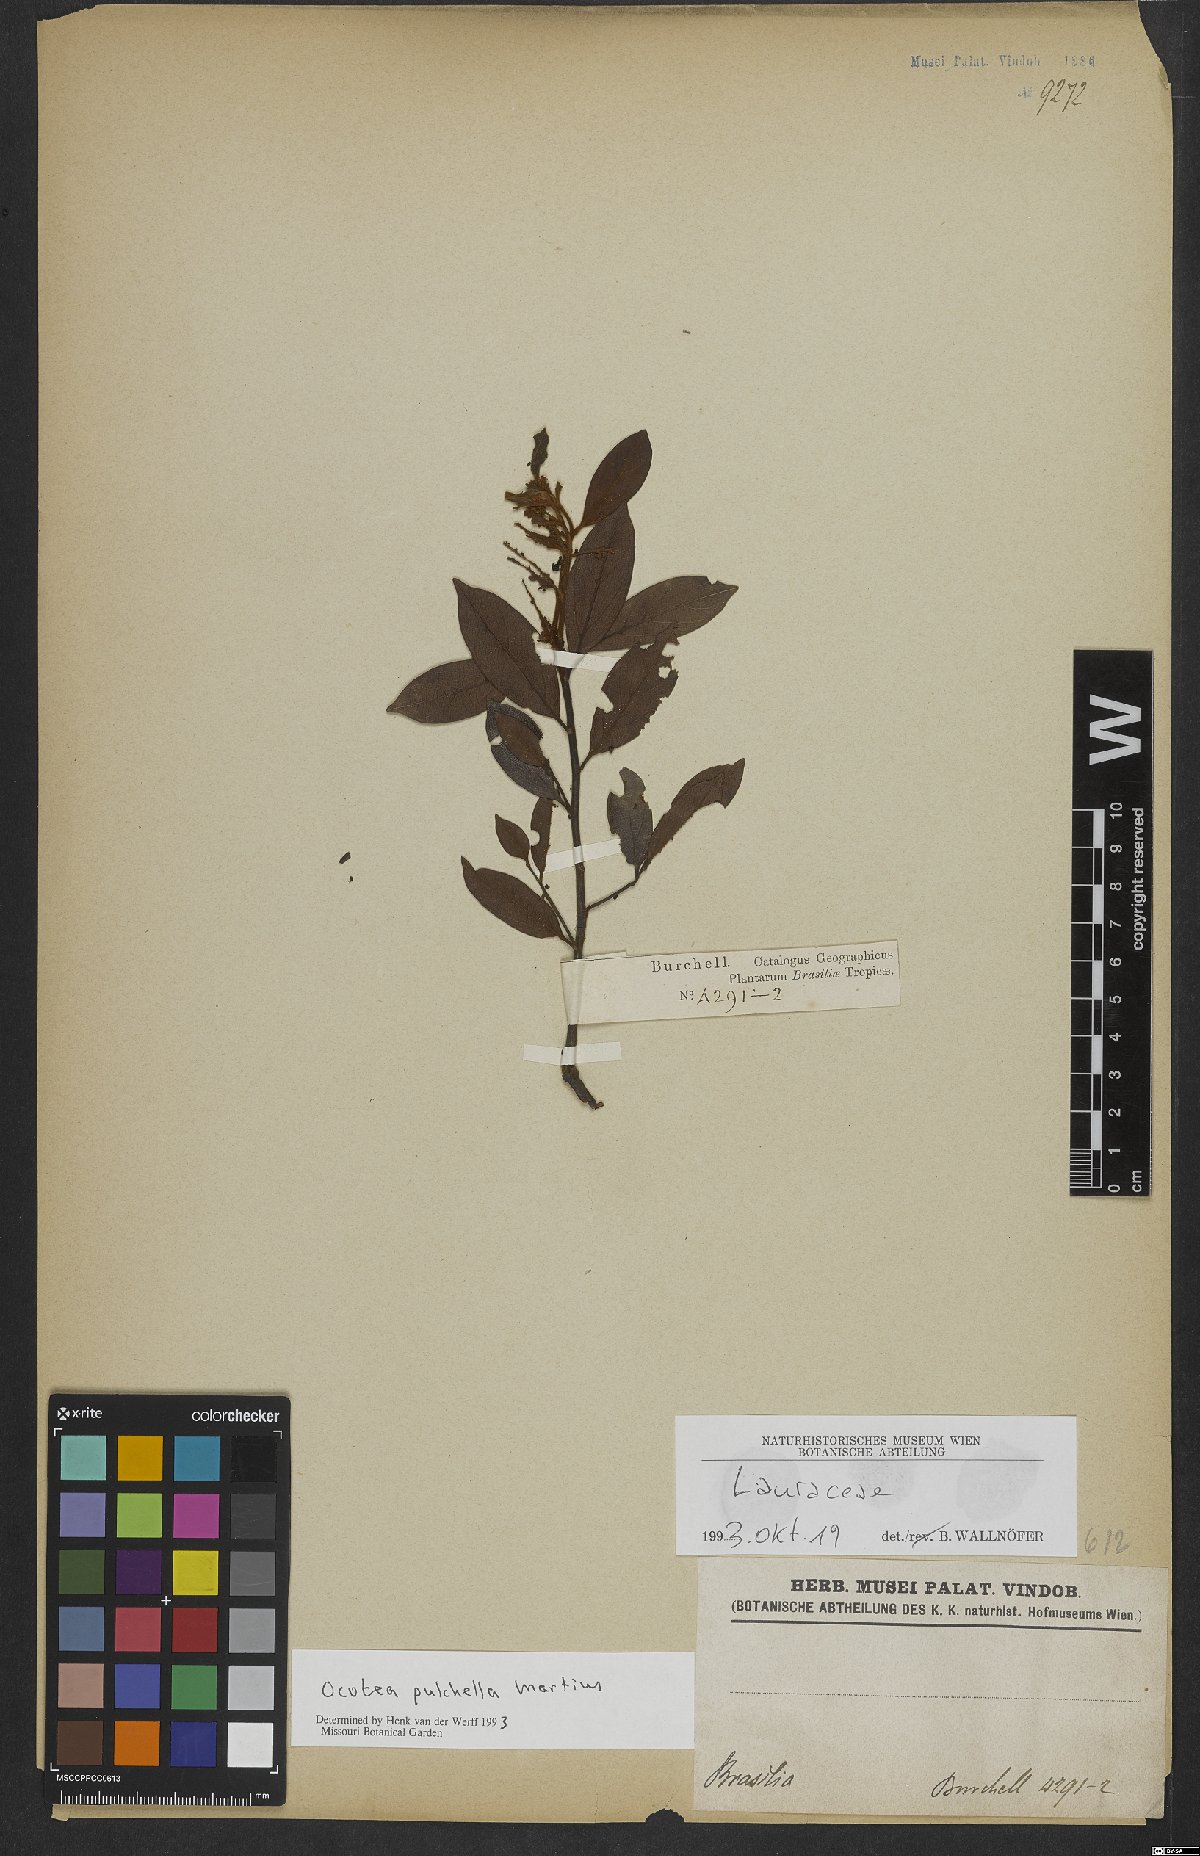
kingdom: Plantae
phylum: Tracheophyta
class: Magnoliopsida
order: Laurales
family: Lauraceae
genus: Mespilodaphne
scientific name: Mespilodaphne pulchella
